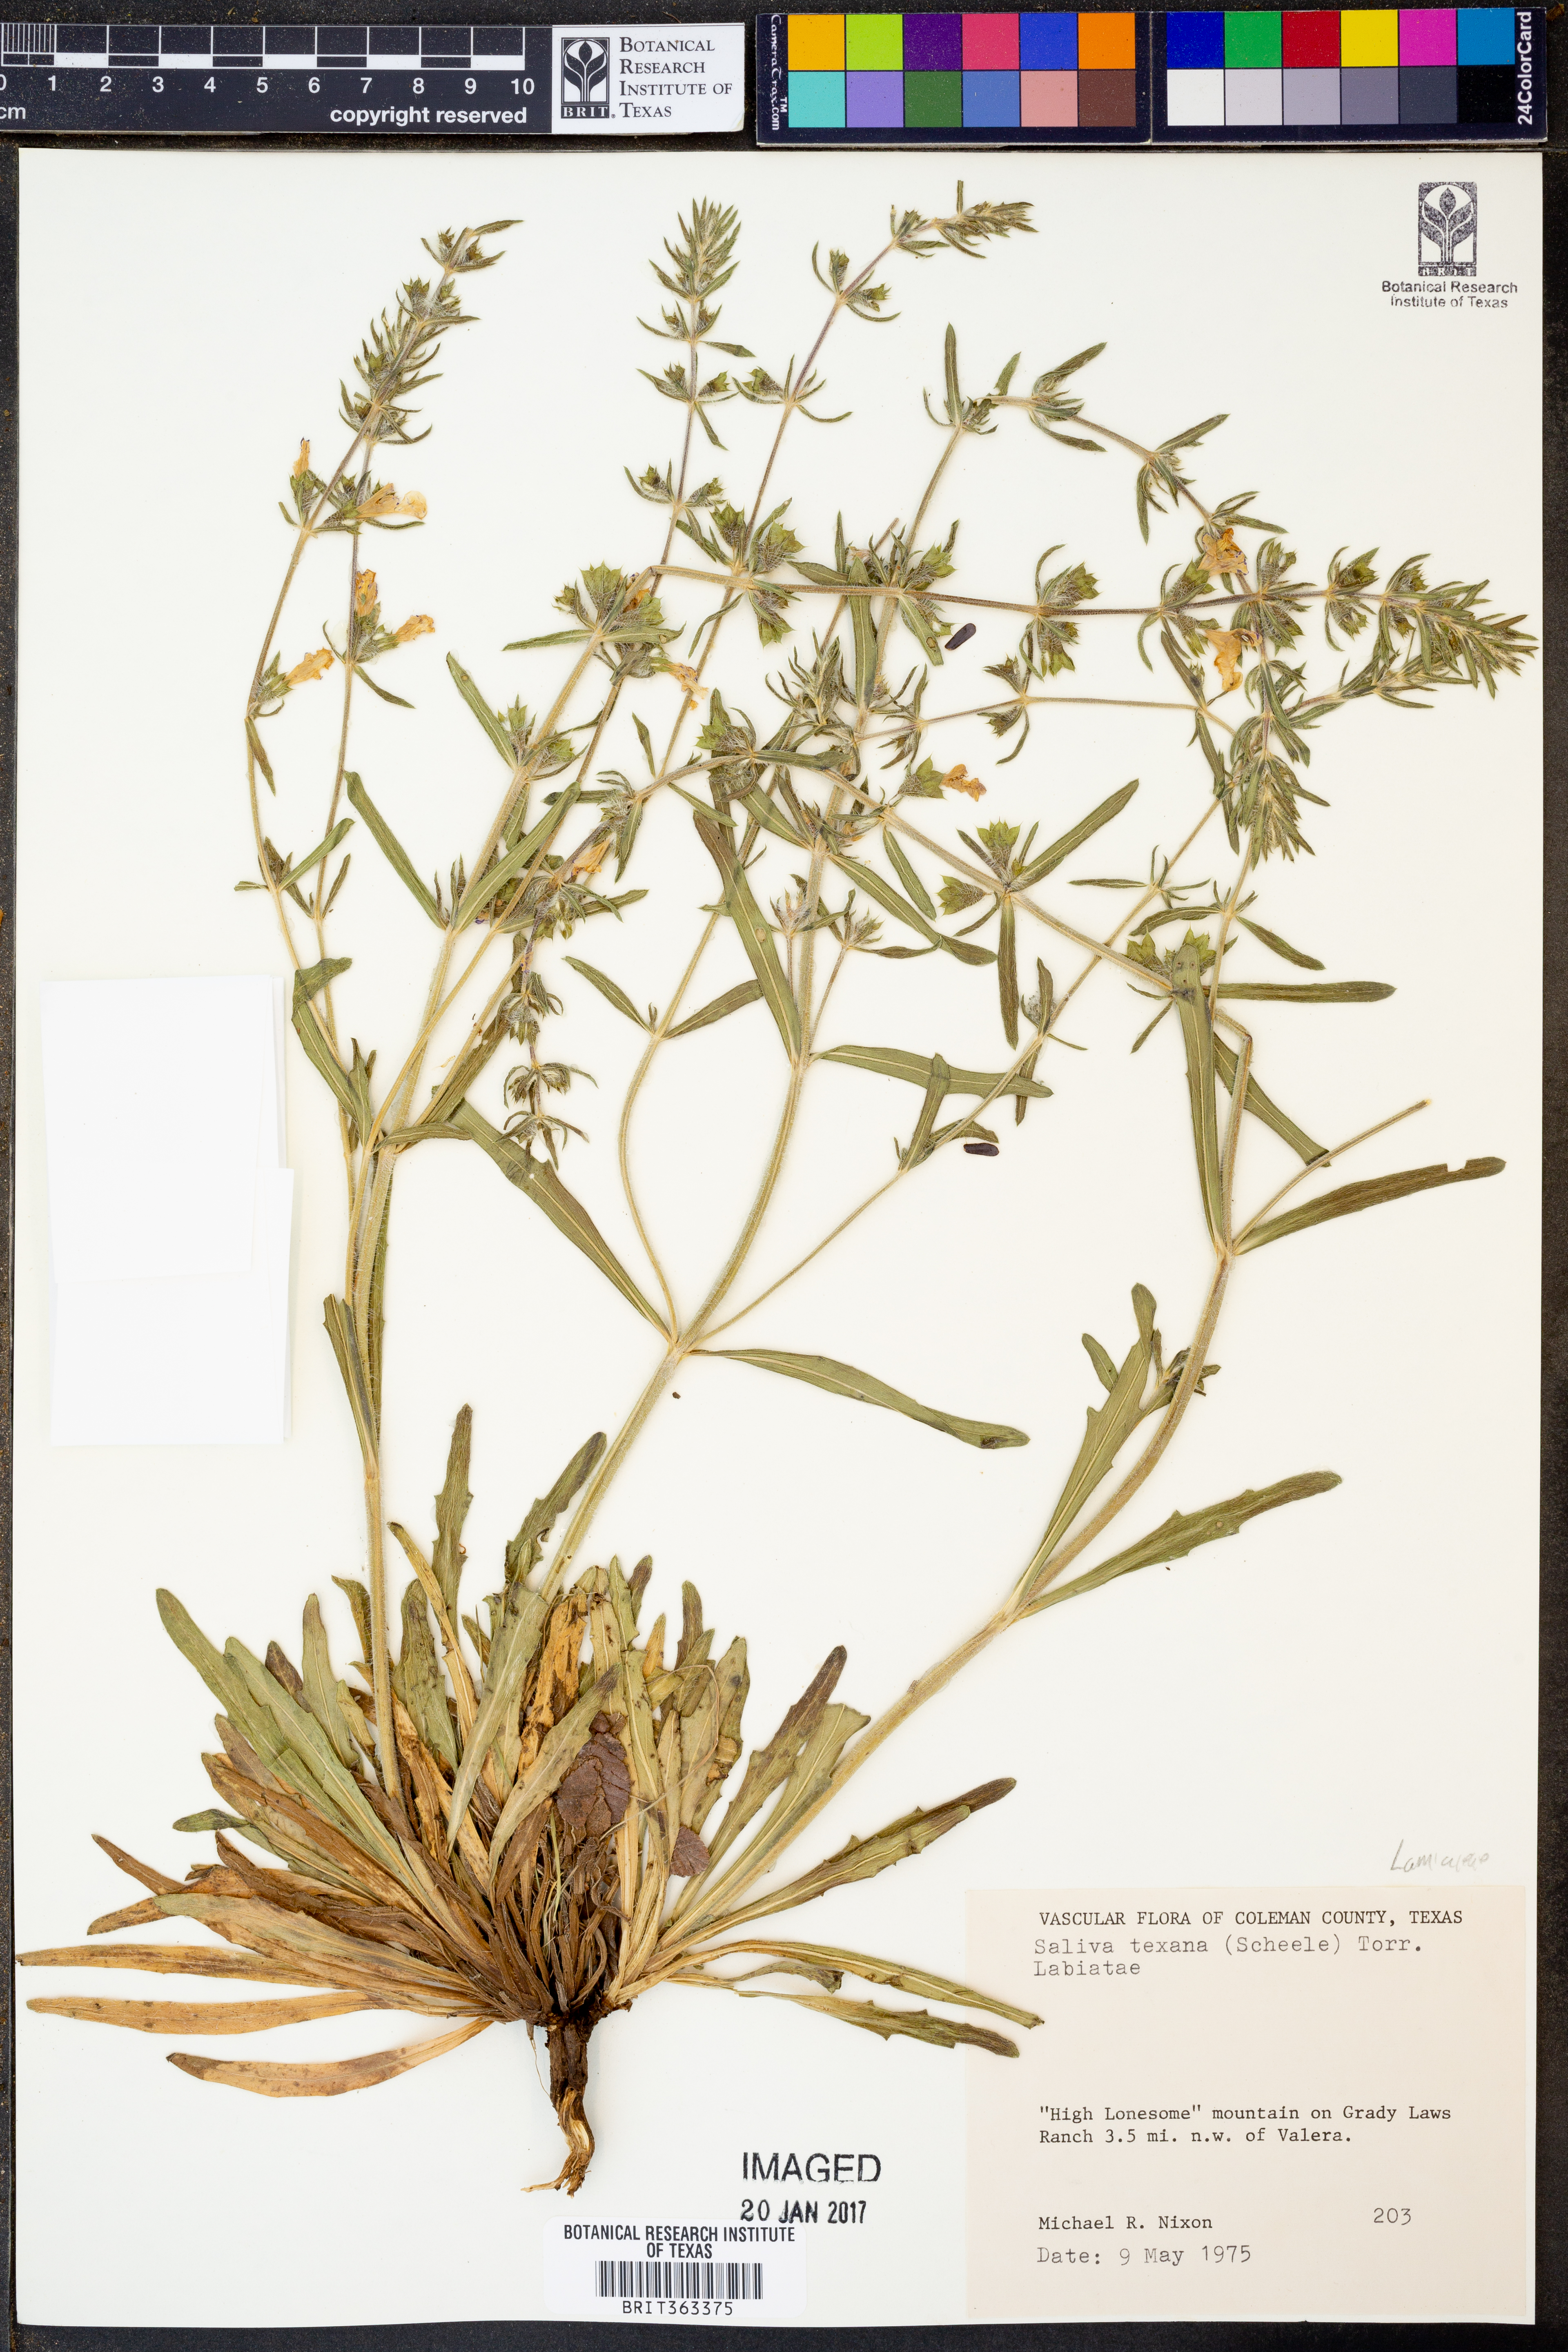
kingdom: Plantae
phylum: Tracheophyta
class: Magnoliopsida
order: Lamiales
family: Lamiaceae
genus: Salvia
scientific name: Salvia texana
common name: Texas sage
